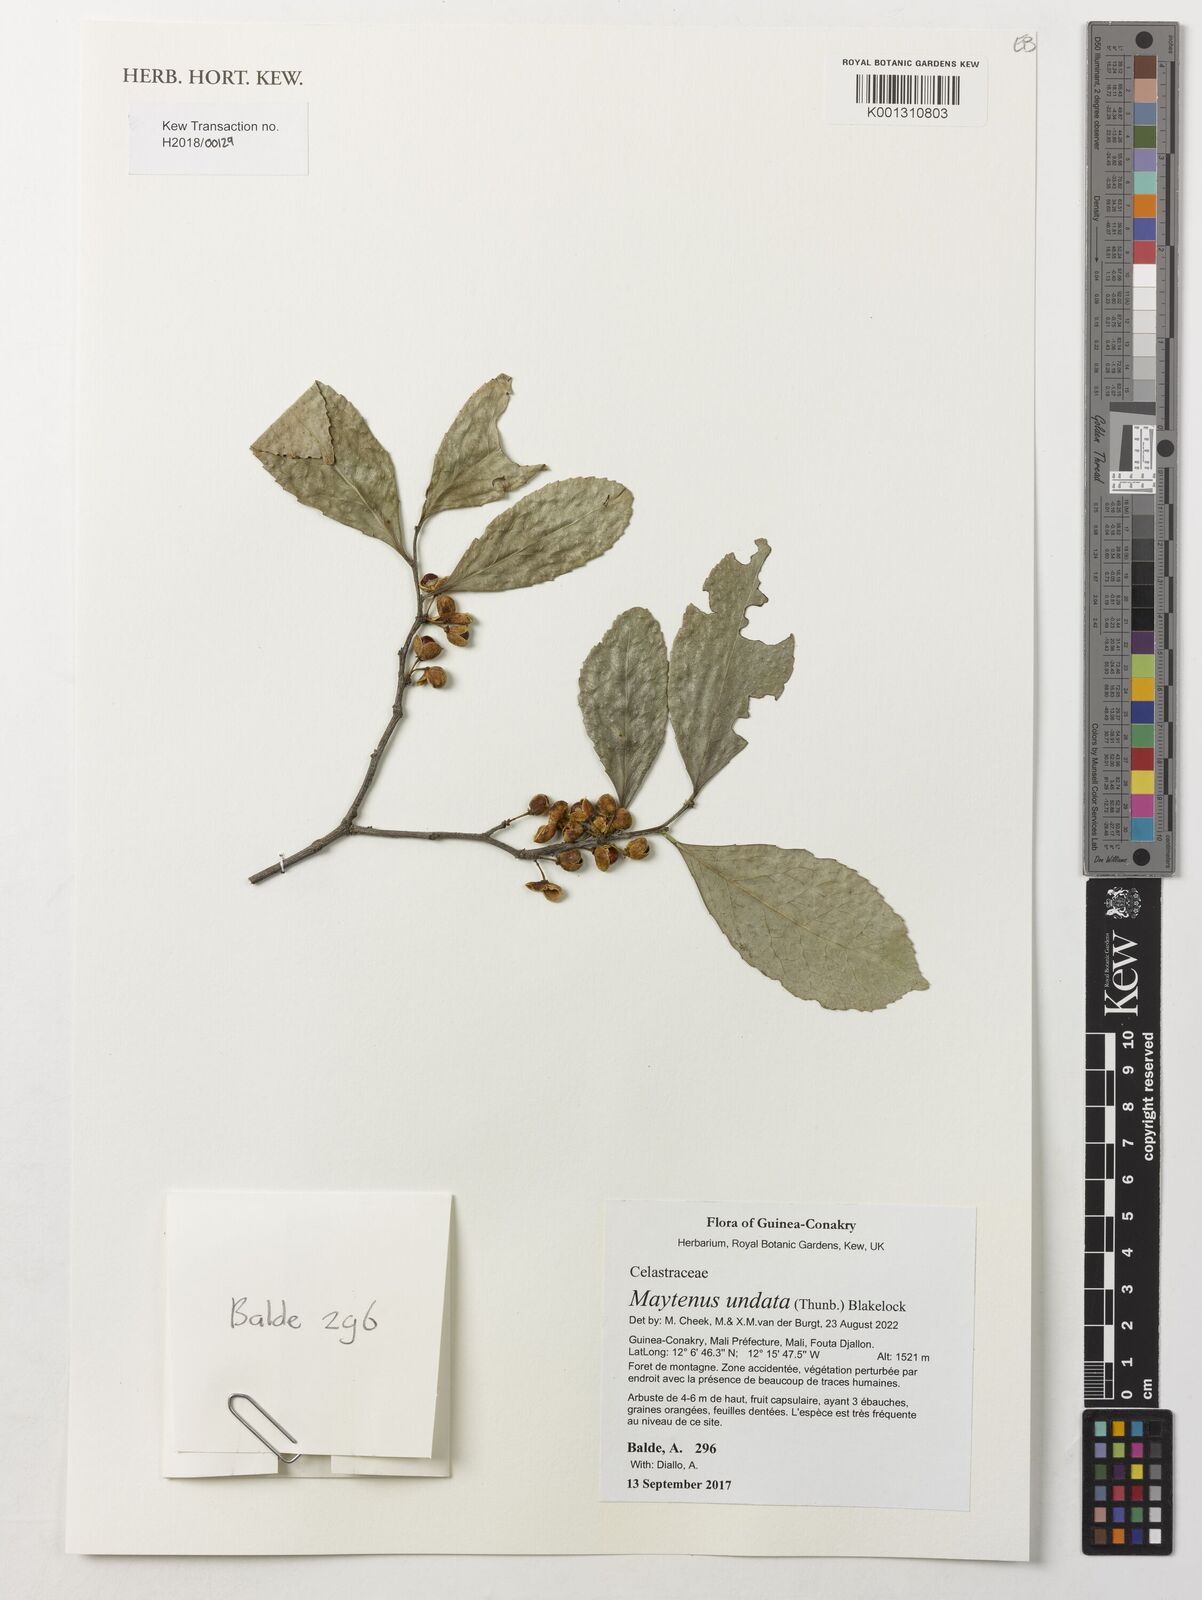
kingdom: Plantae
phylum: Tracheophyta
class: Magnoliopsida
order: Celastrales
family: Celastraceae
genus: Gymnosporia
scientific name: Gymnosporia undata
